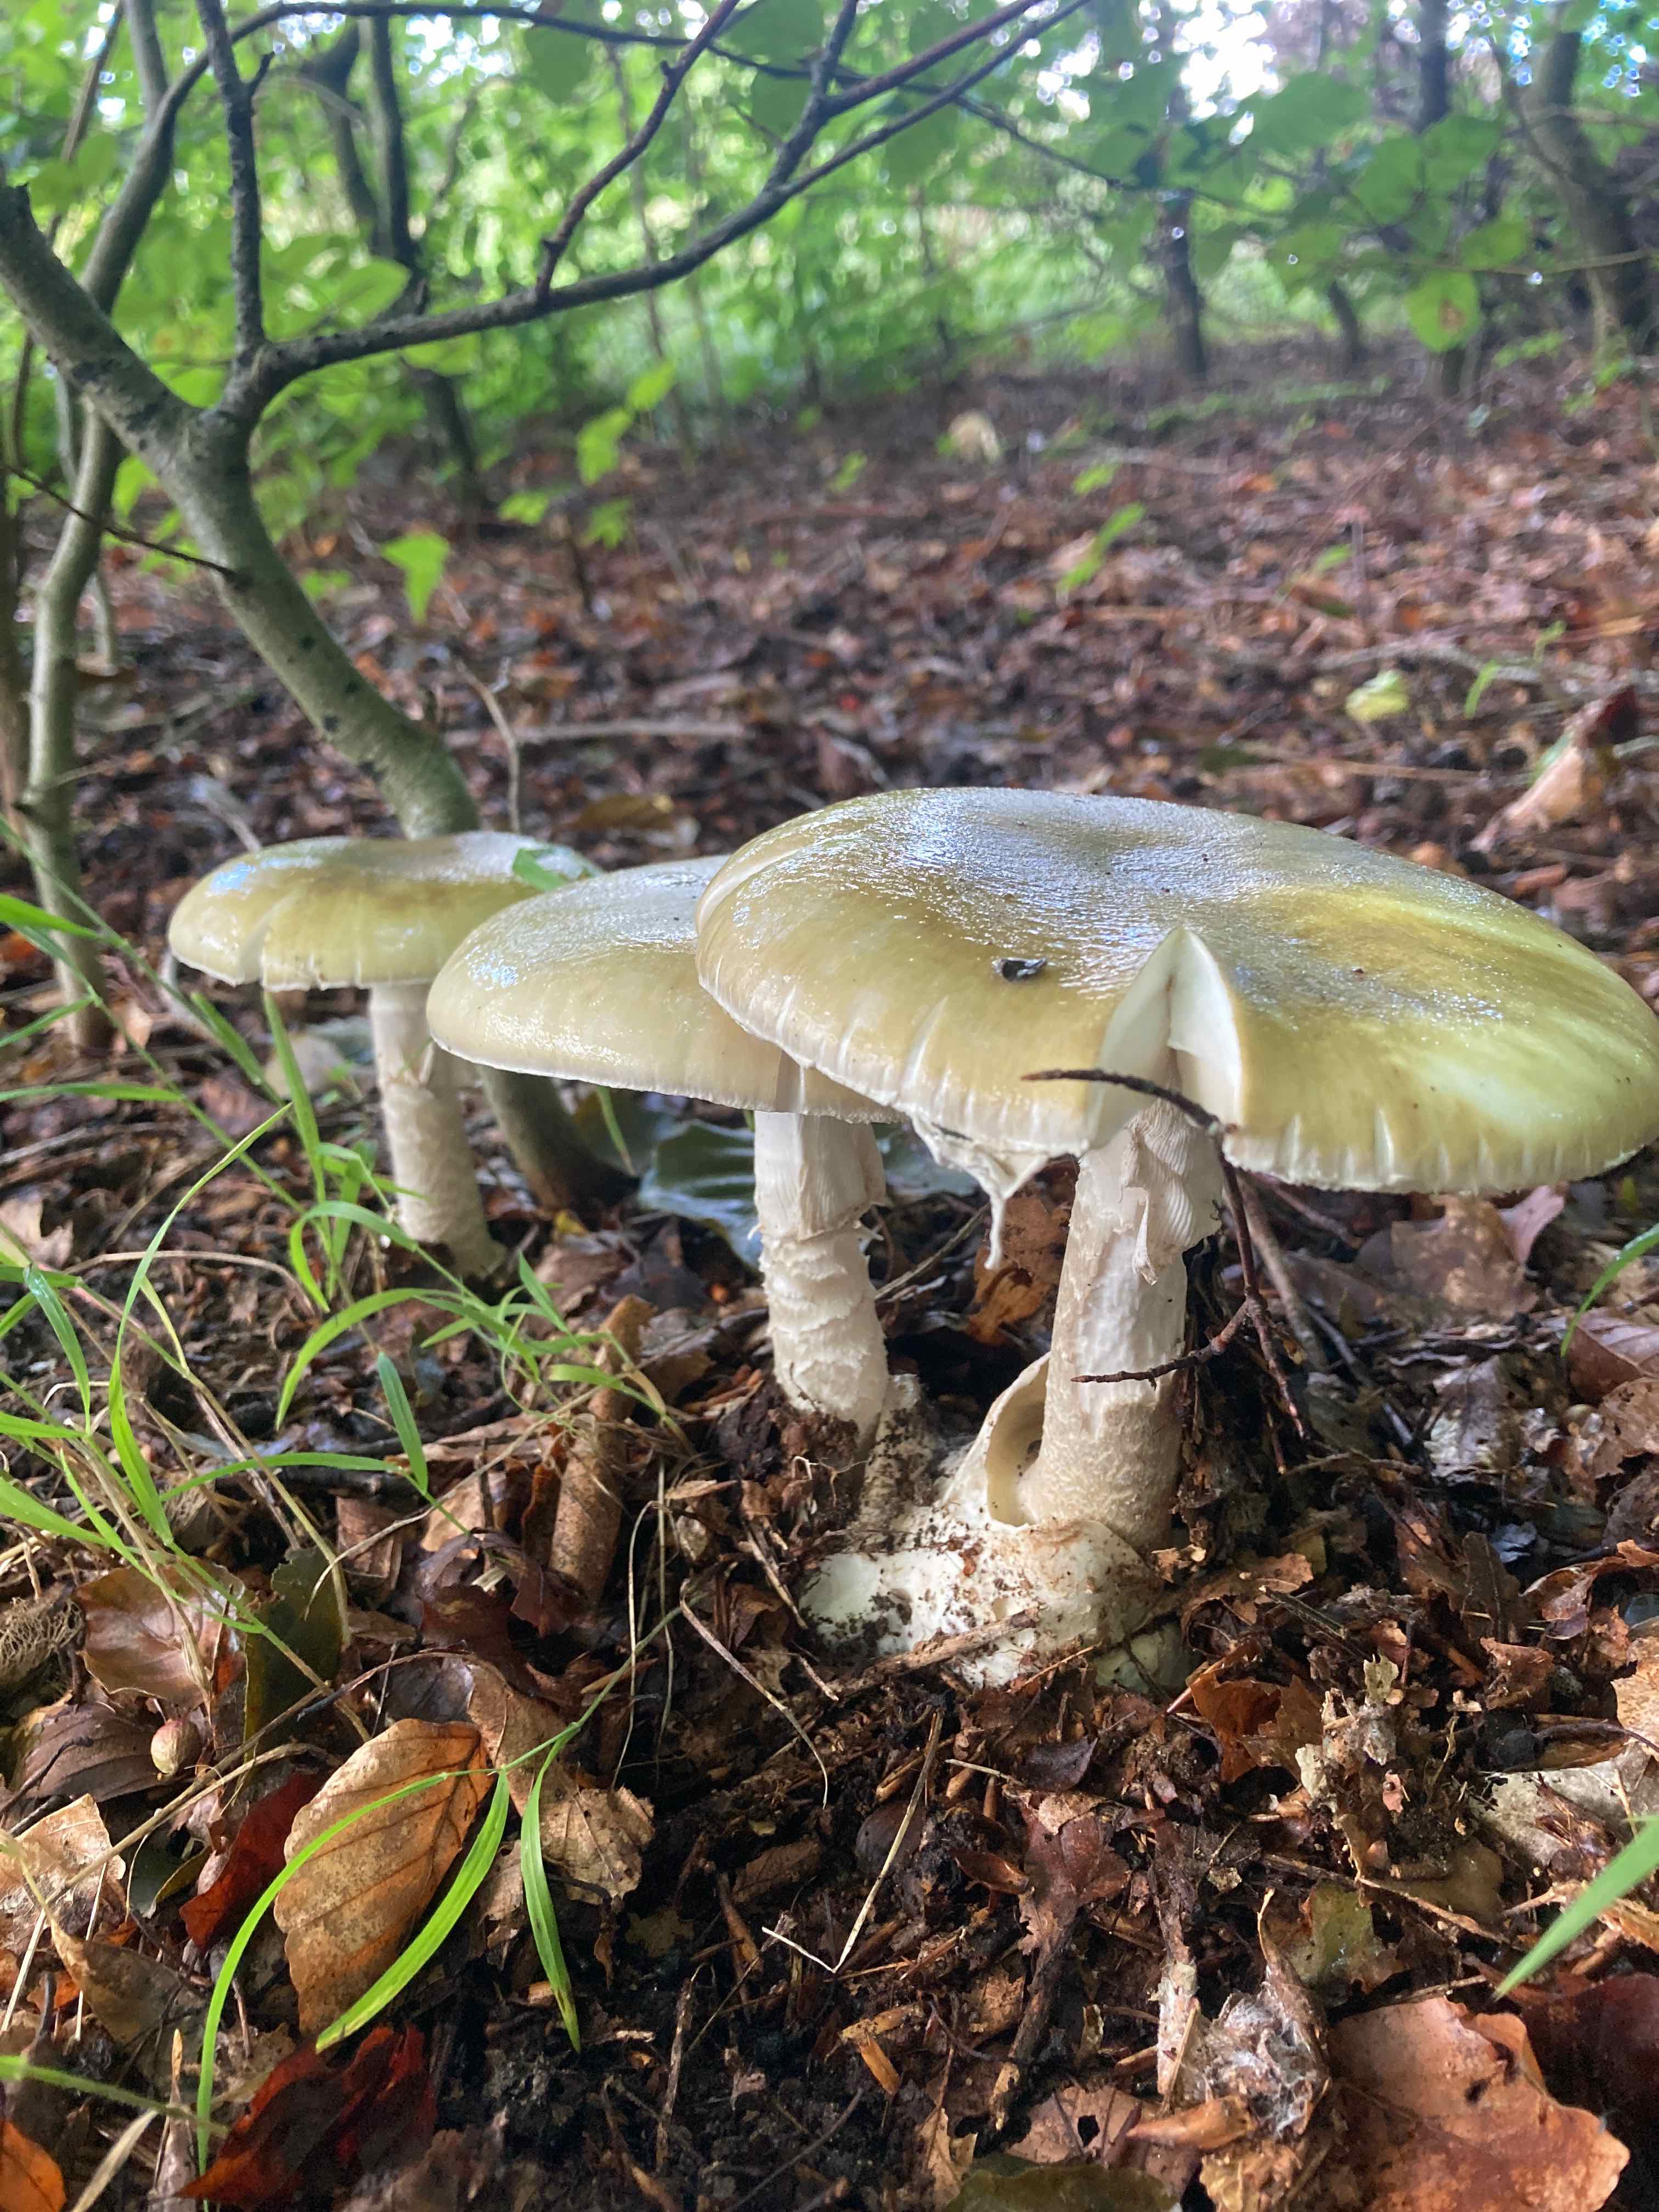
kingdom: Fungi
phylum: Basidiomycota
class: Agaricomycetes
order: Agaricales
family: Amanitaceae
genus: Amanita
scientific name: Amanita phalloides
